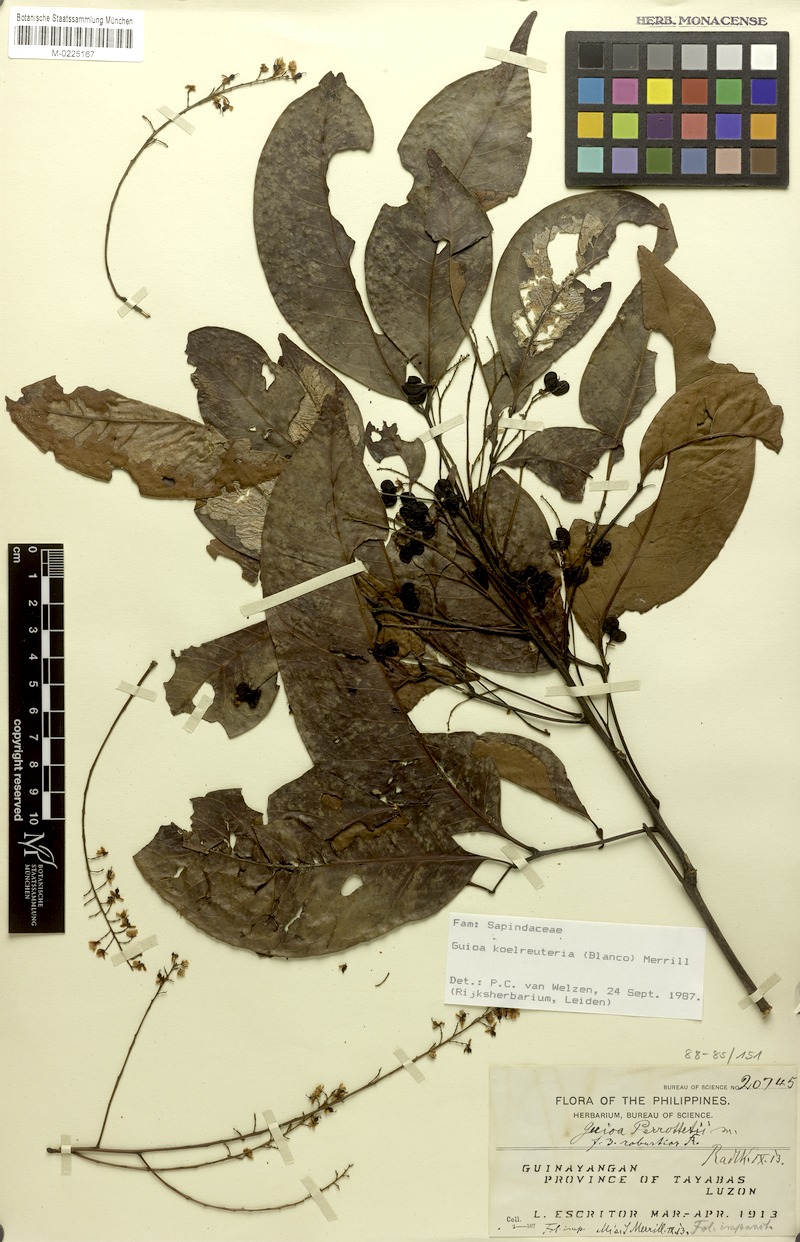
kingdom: Plantae
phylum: Tracheophyta
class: Magnoliopsida
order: Sapindales
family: Sapindaceae
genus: Guioa
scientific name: Guioa koelreuteria
